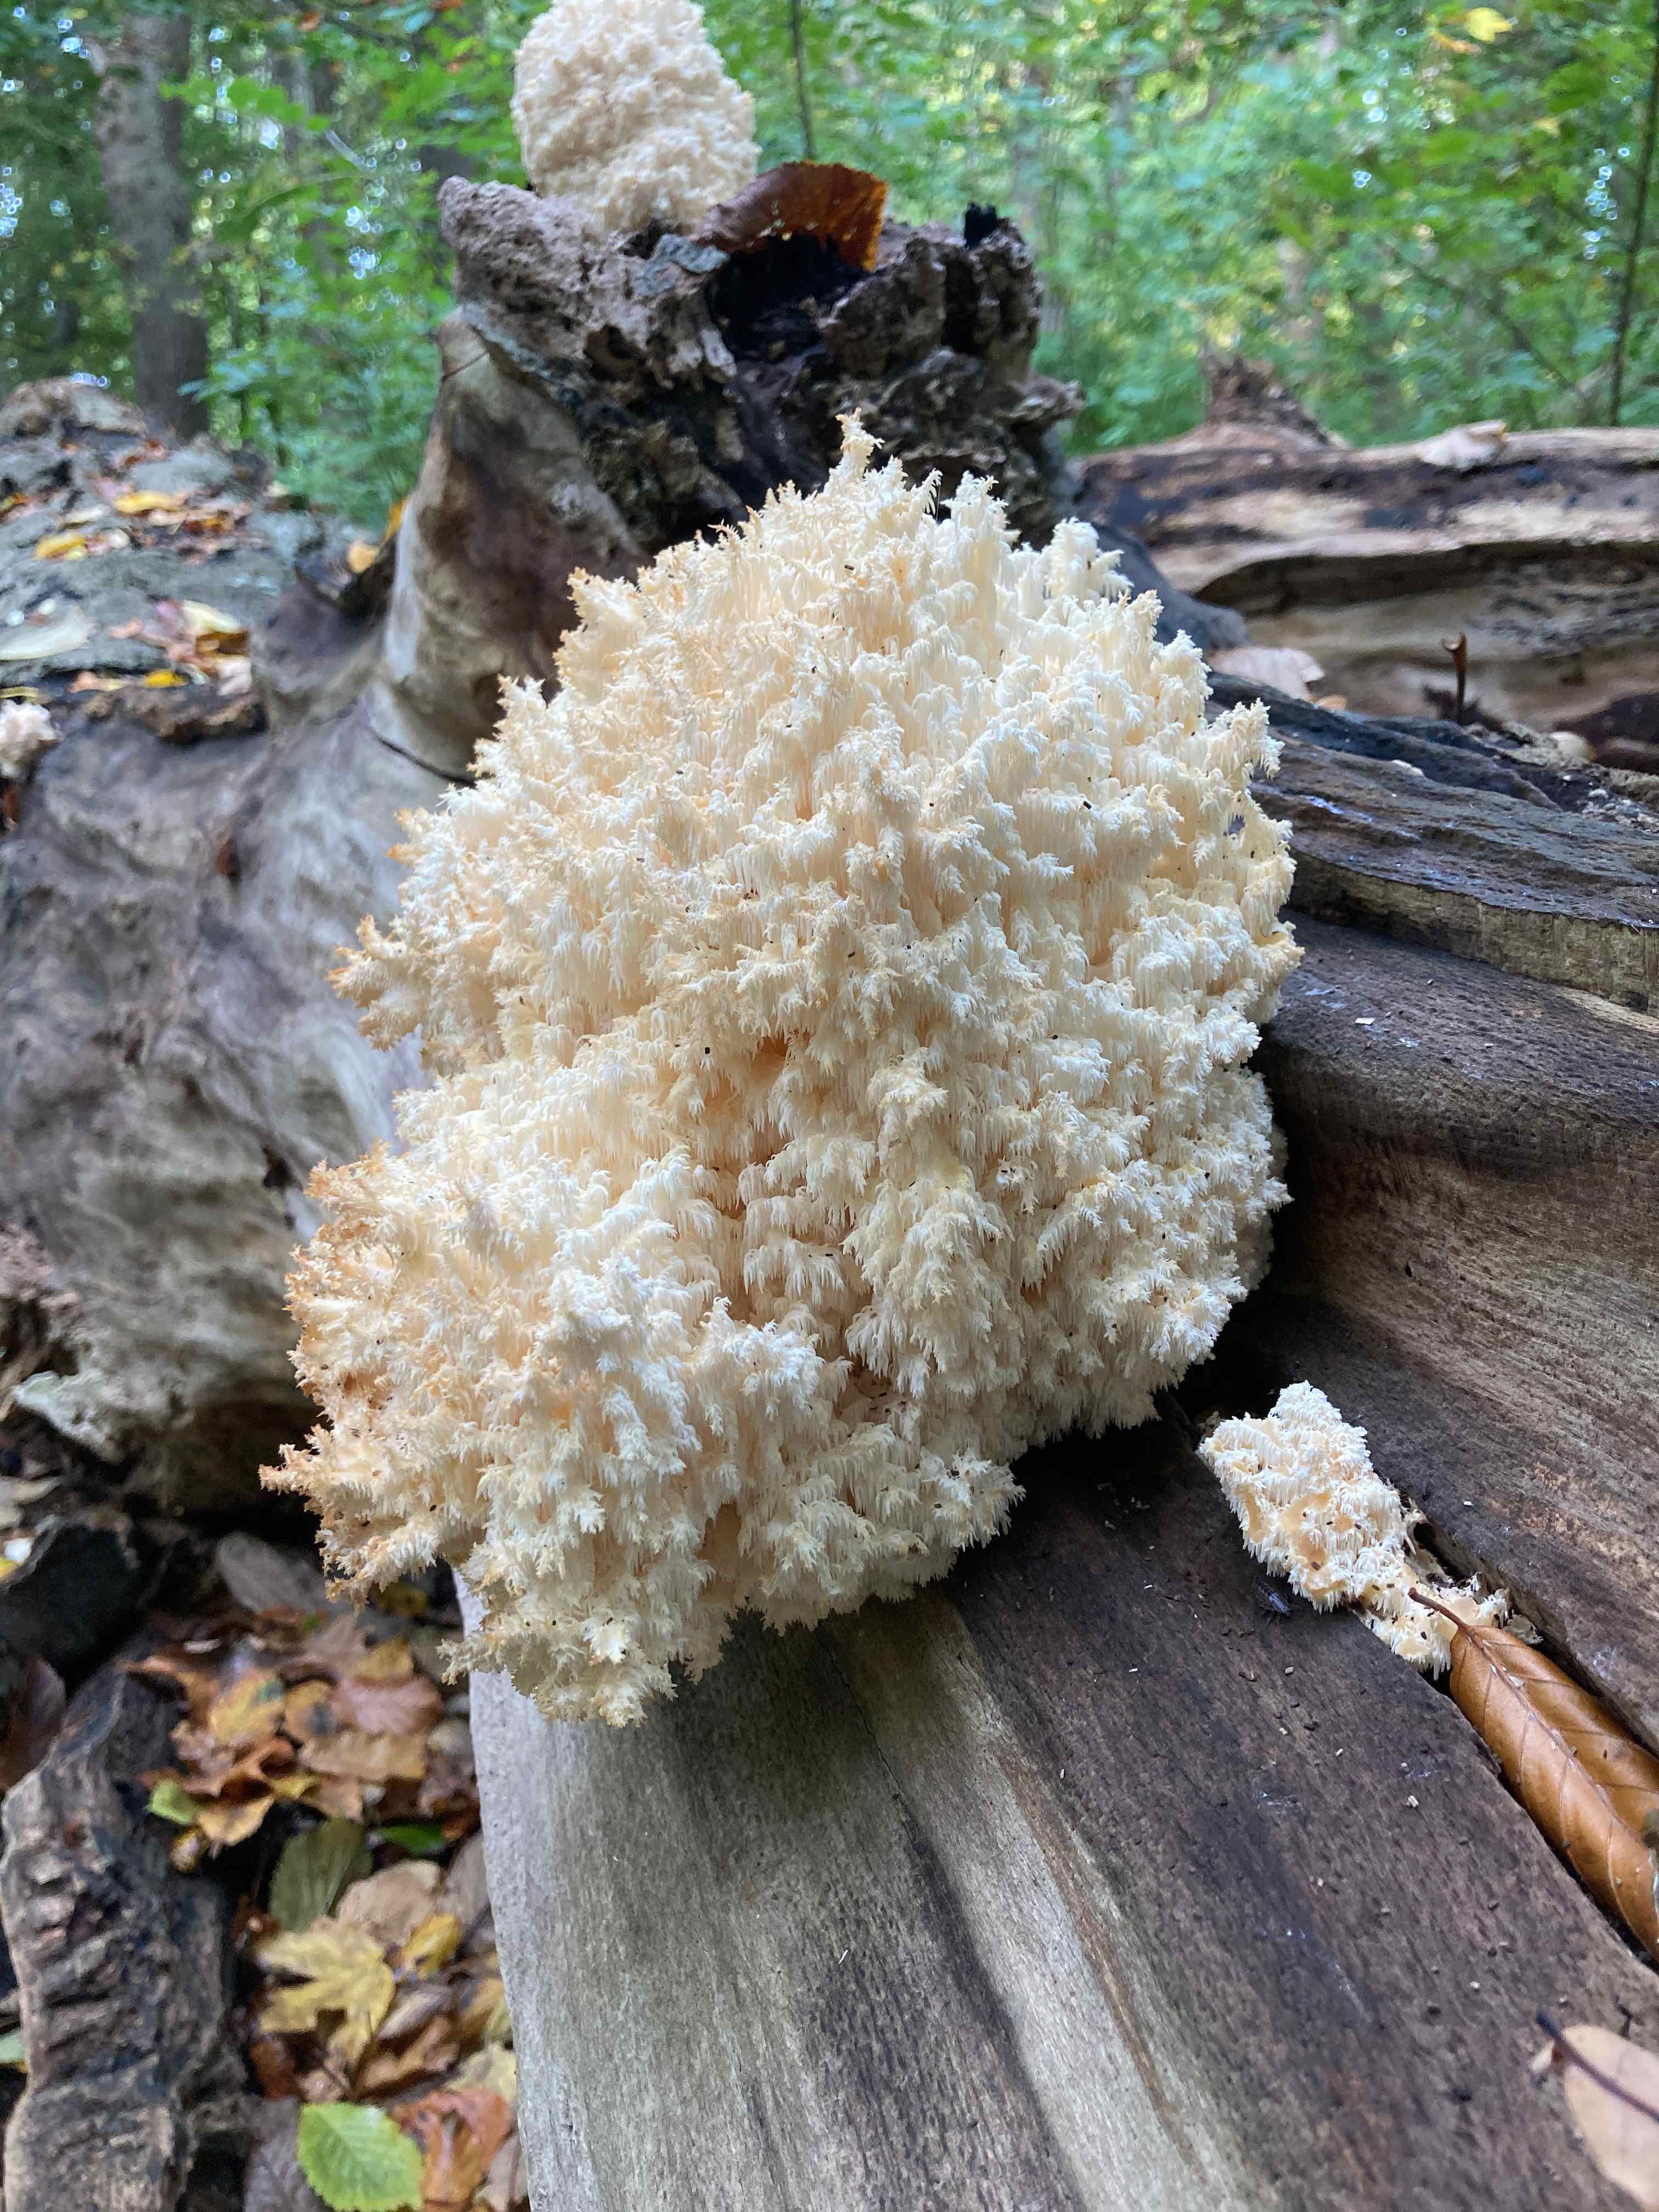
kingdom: Fungi
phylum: Basidiomycota
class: Agaricomycetes
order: Russulales
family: Hericiaceae
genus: Hericium
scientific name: Hericium coralloides
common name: koralpigsvamp
